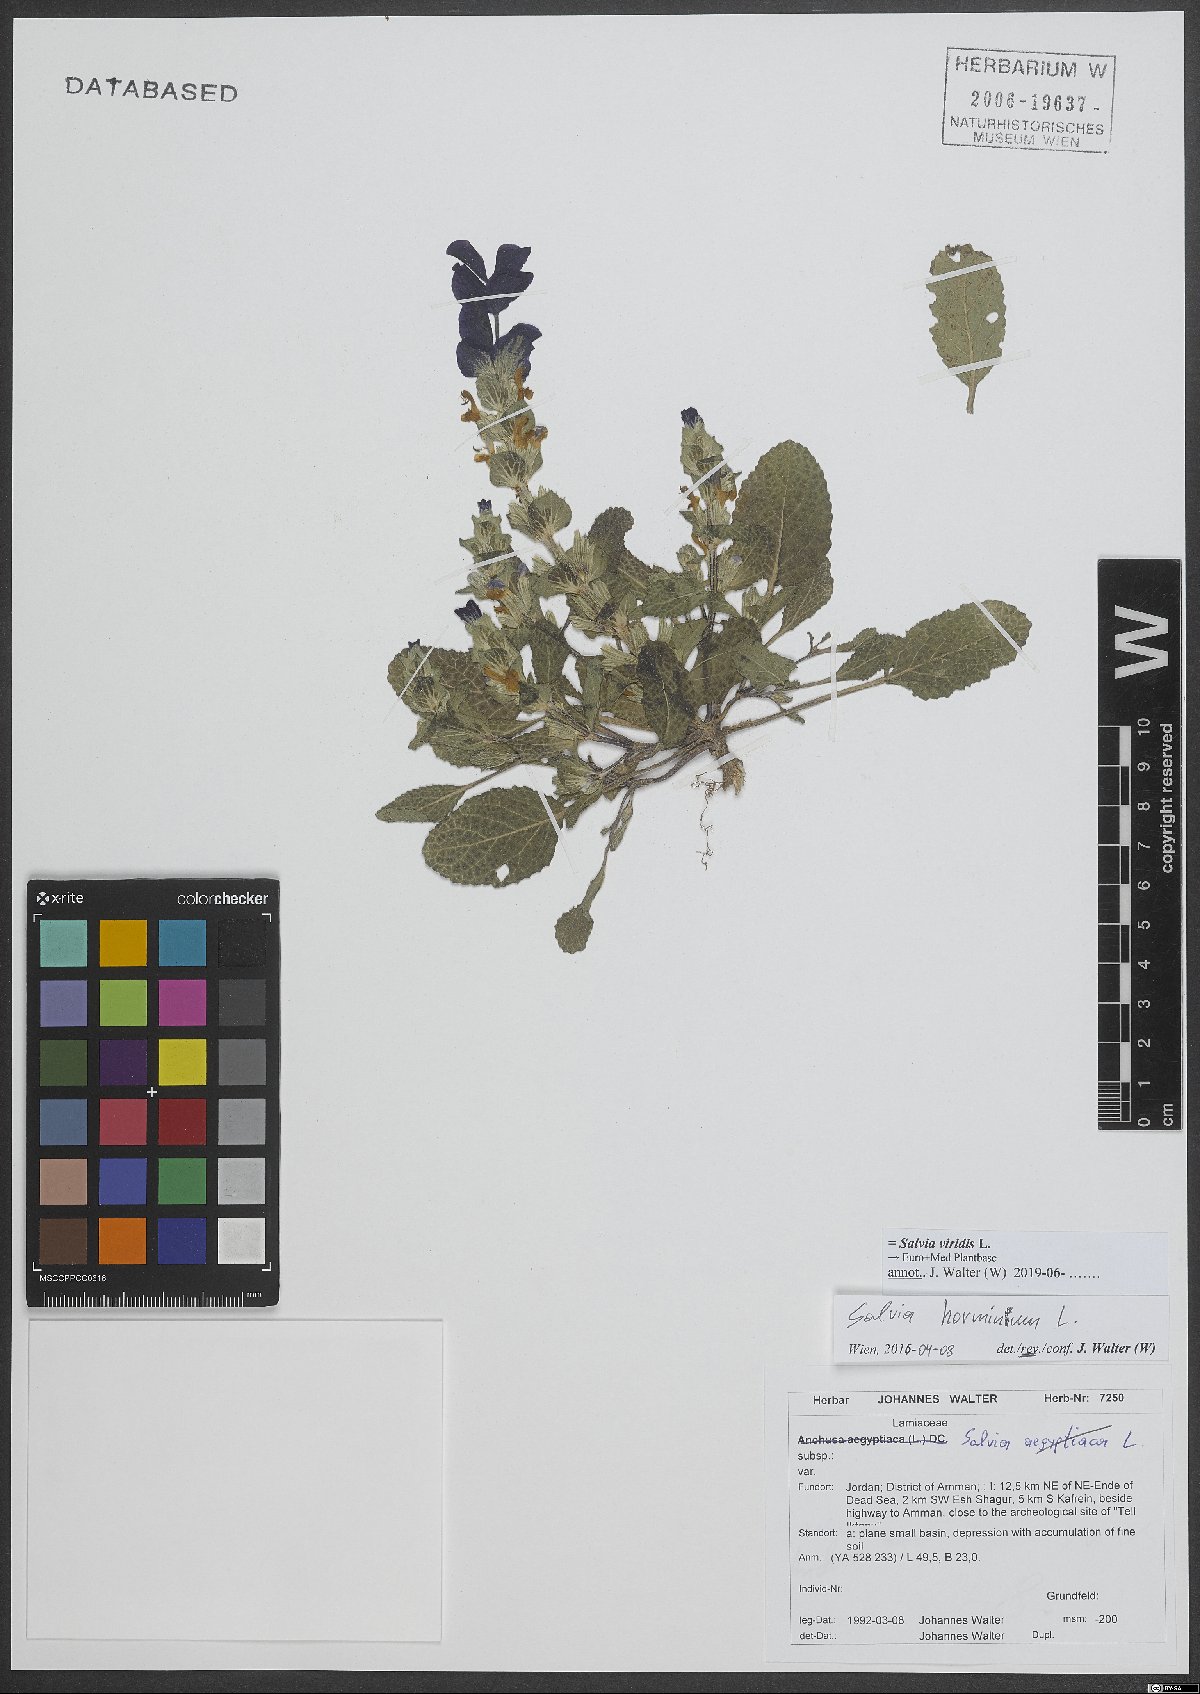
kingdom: Plantae
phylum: Tracheophyta
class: Magnoliopsida
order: Lamiales
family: Lamiaceae
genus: Salvia
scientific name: Salvia viridis
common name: Annual clary
